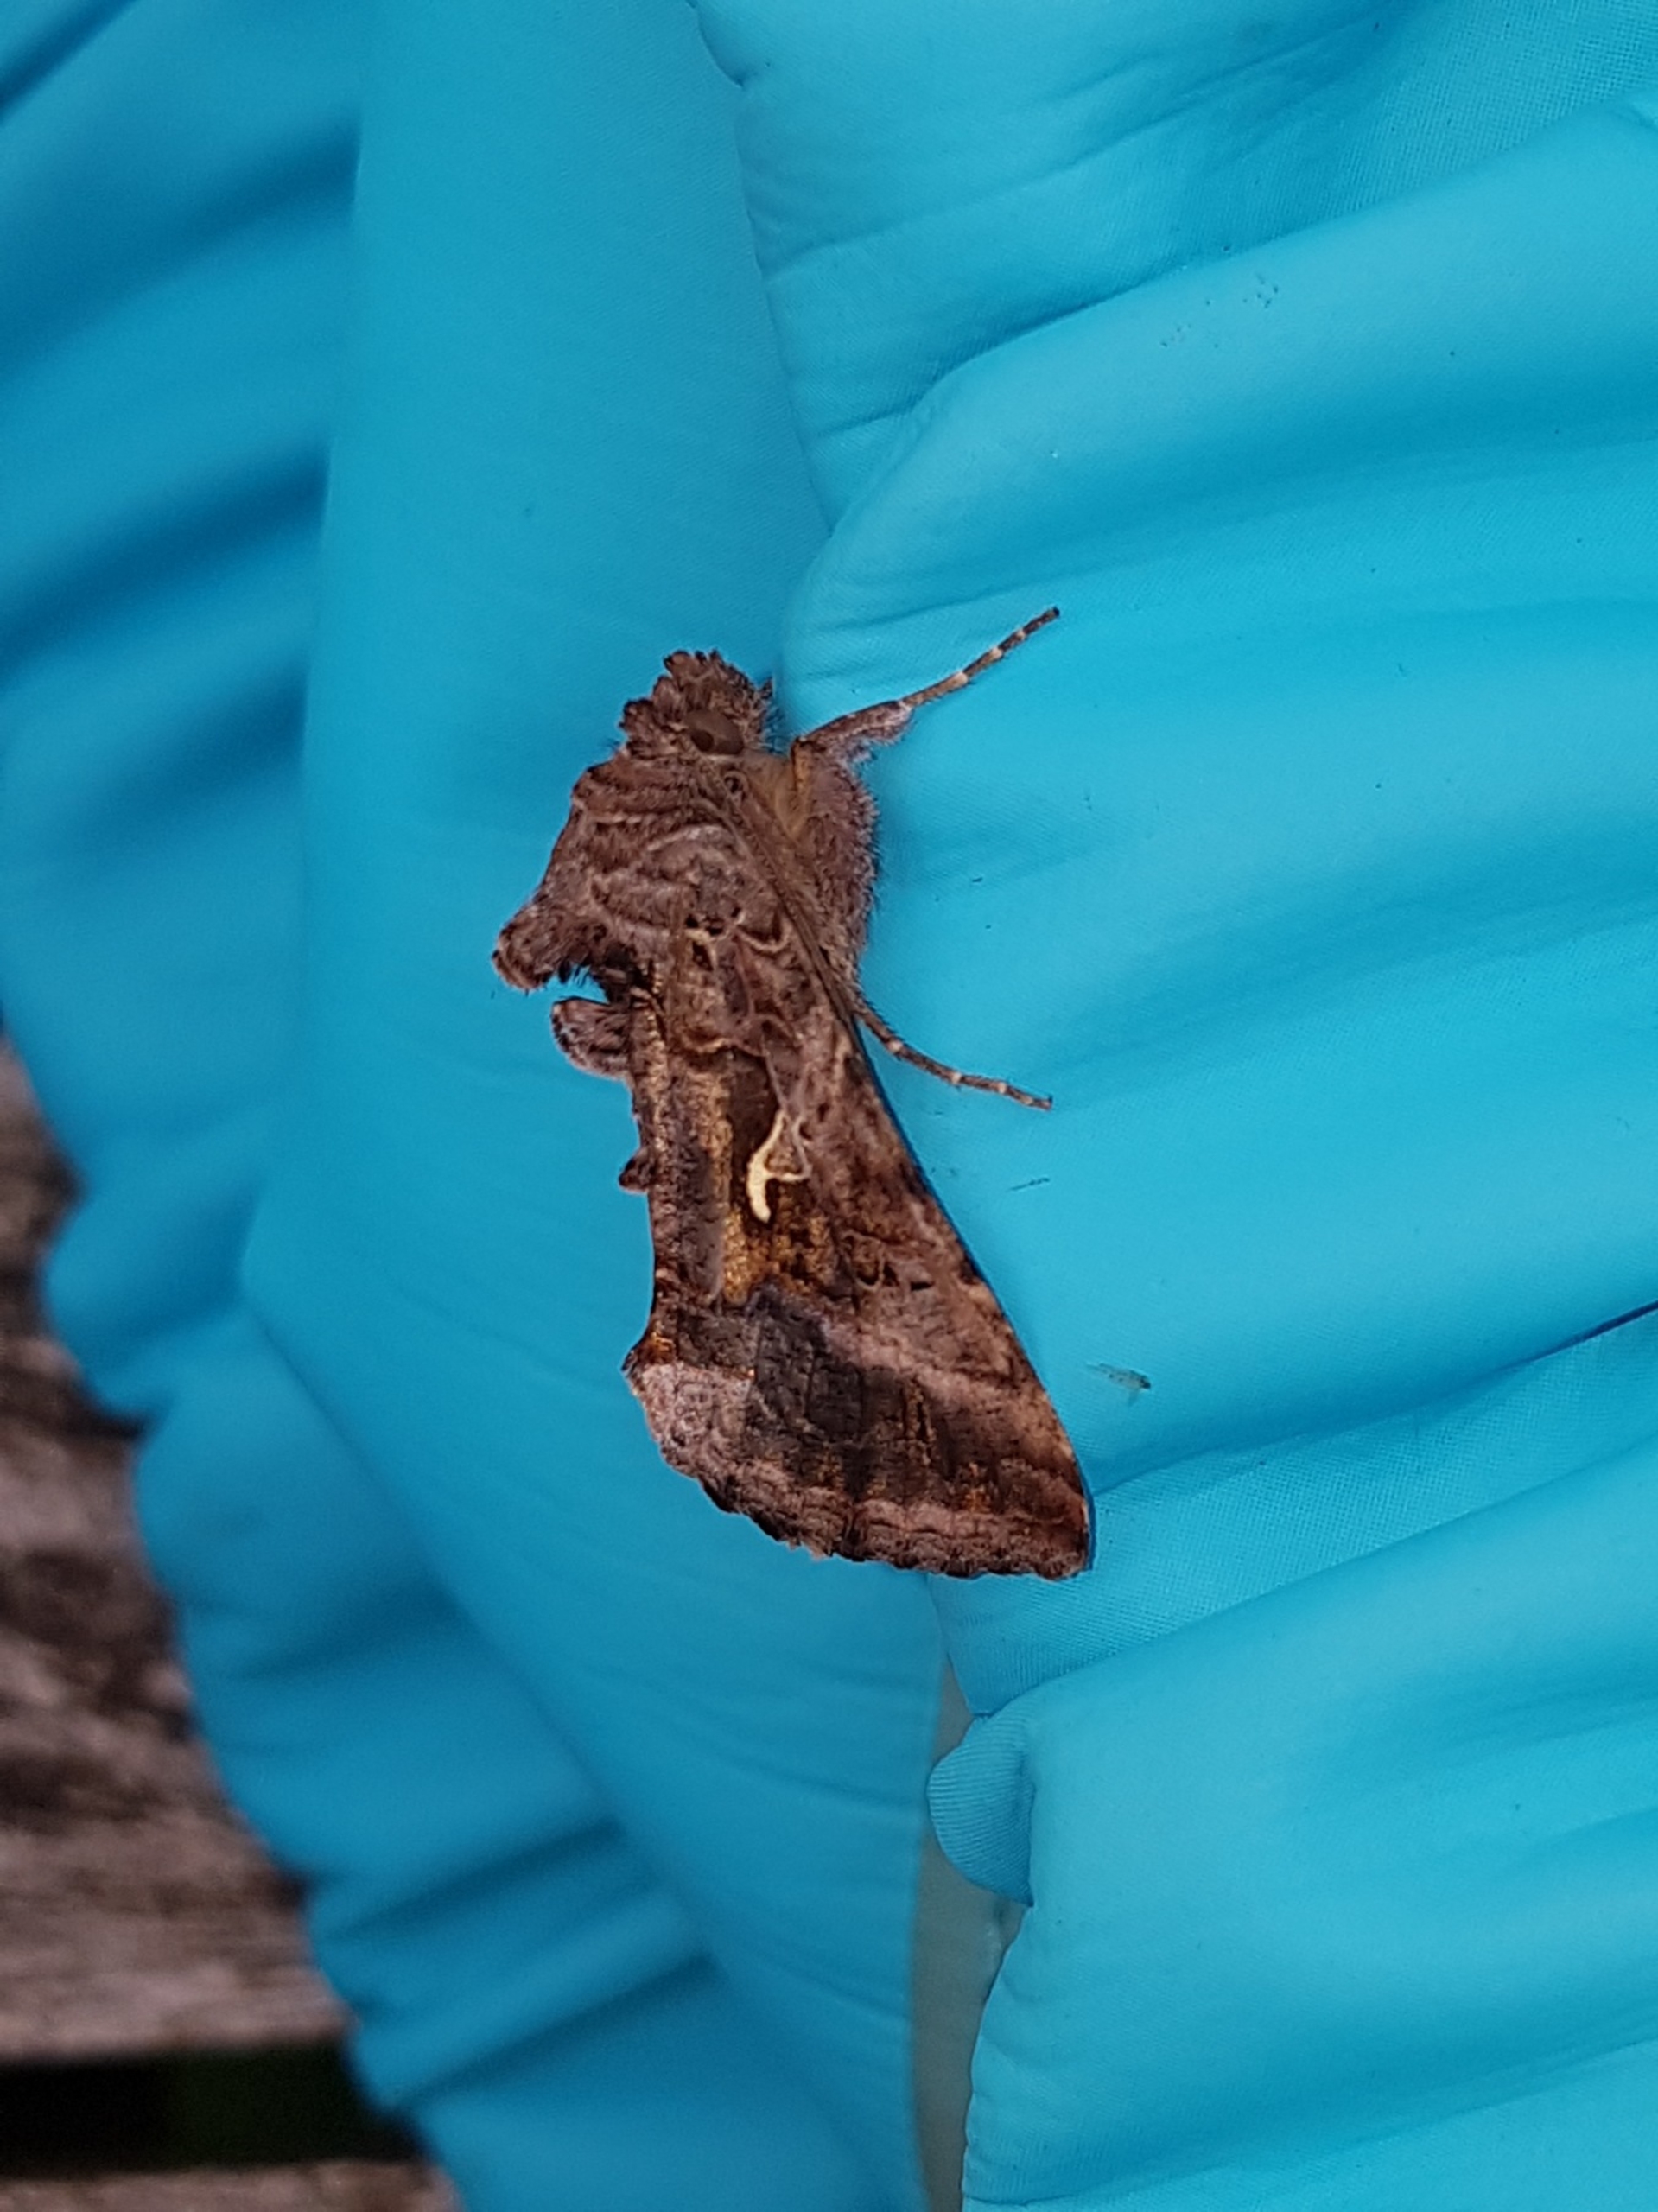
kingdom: Animalia
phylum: Arthropoda
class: Insecta
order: Lepidoptera
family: Noctuidae
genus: Autographa
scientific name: Autographa gamma
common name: Gammaugle
